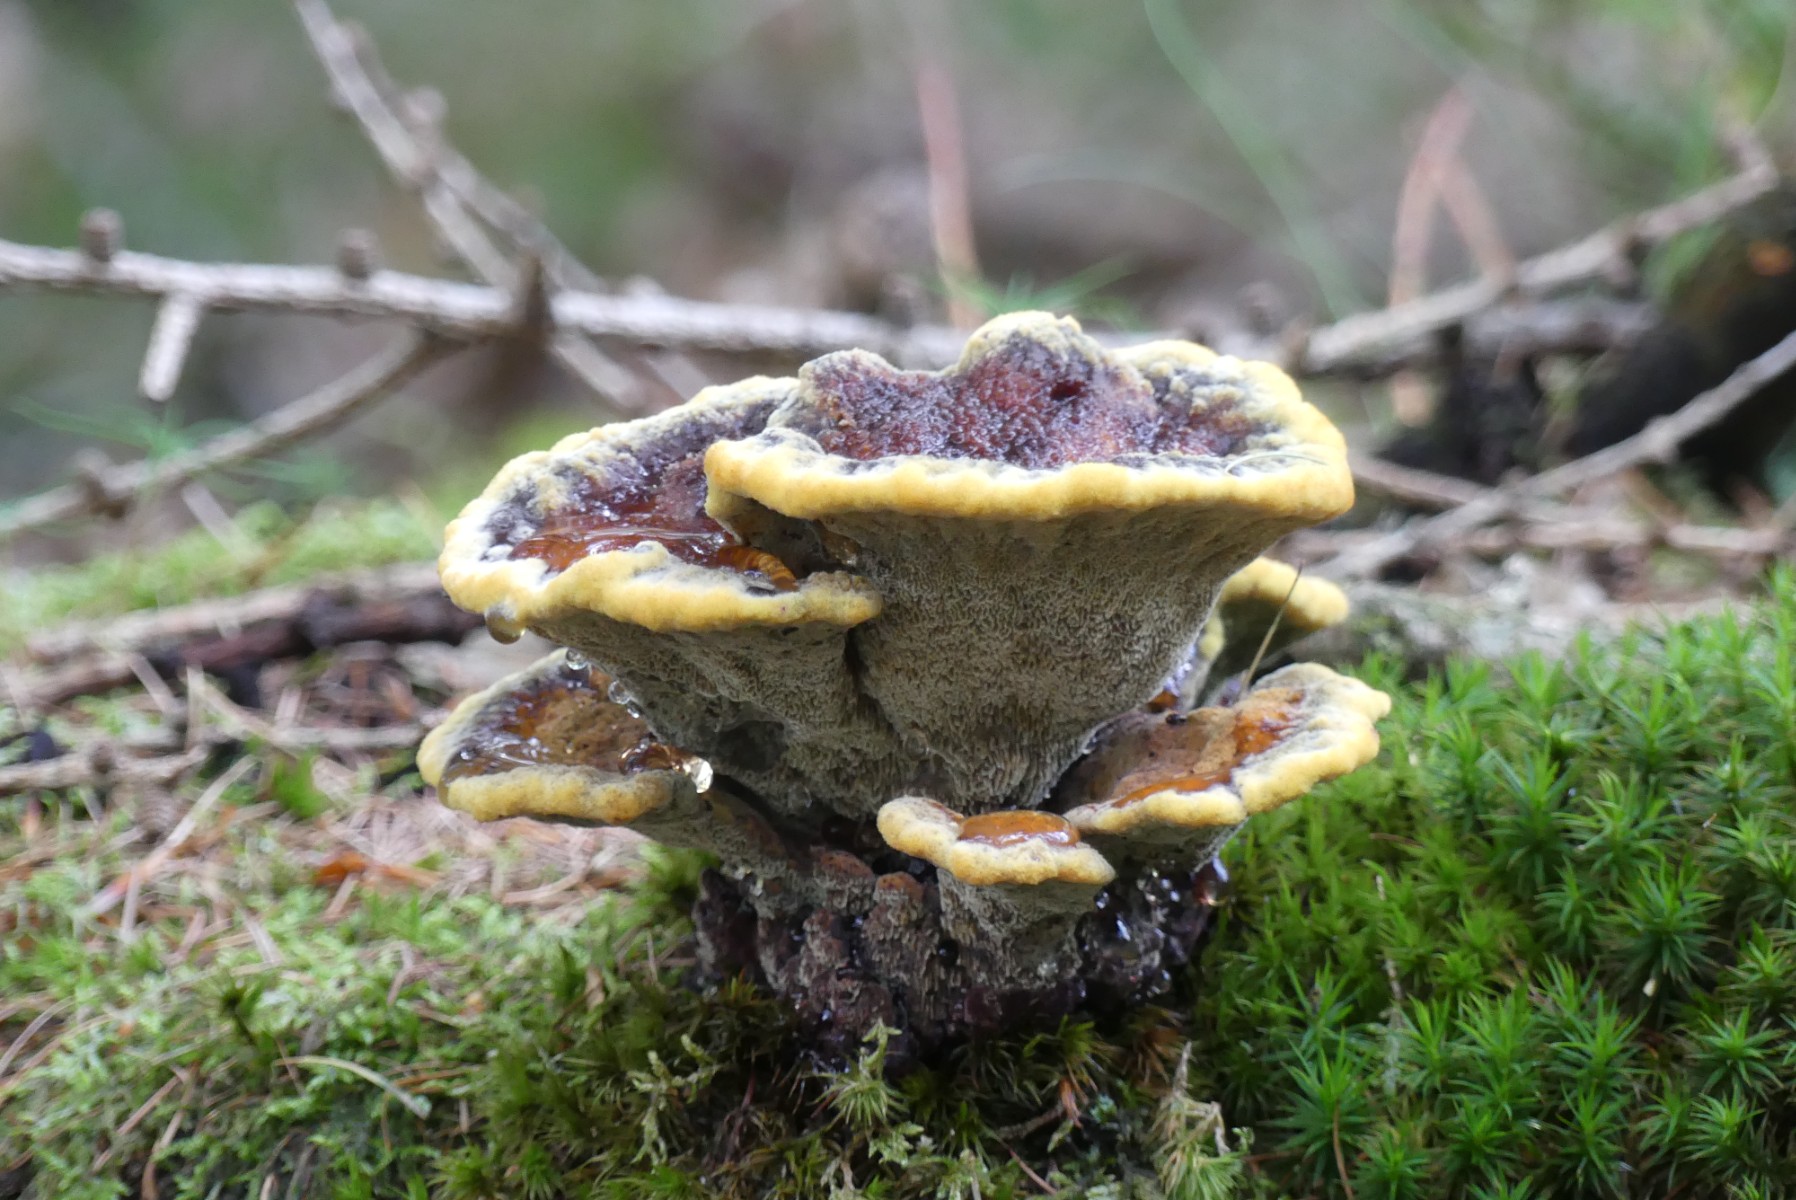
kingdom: Fungi
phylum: Basidiomycota
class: Agaricomycetes
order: Polyporales
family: Laetiporaceae
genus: Phaeolus
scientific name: Phaeolus schweinitzii
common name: brunporesvamp
